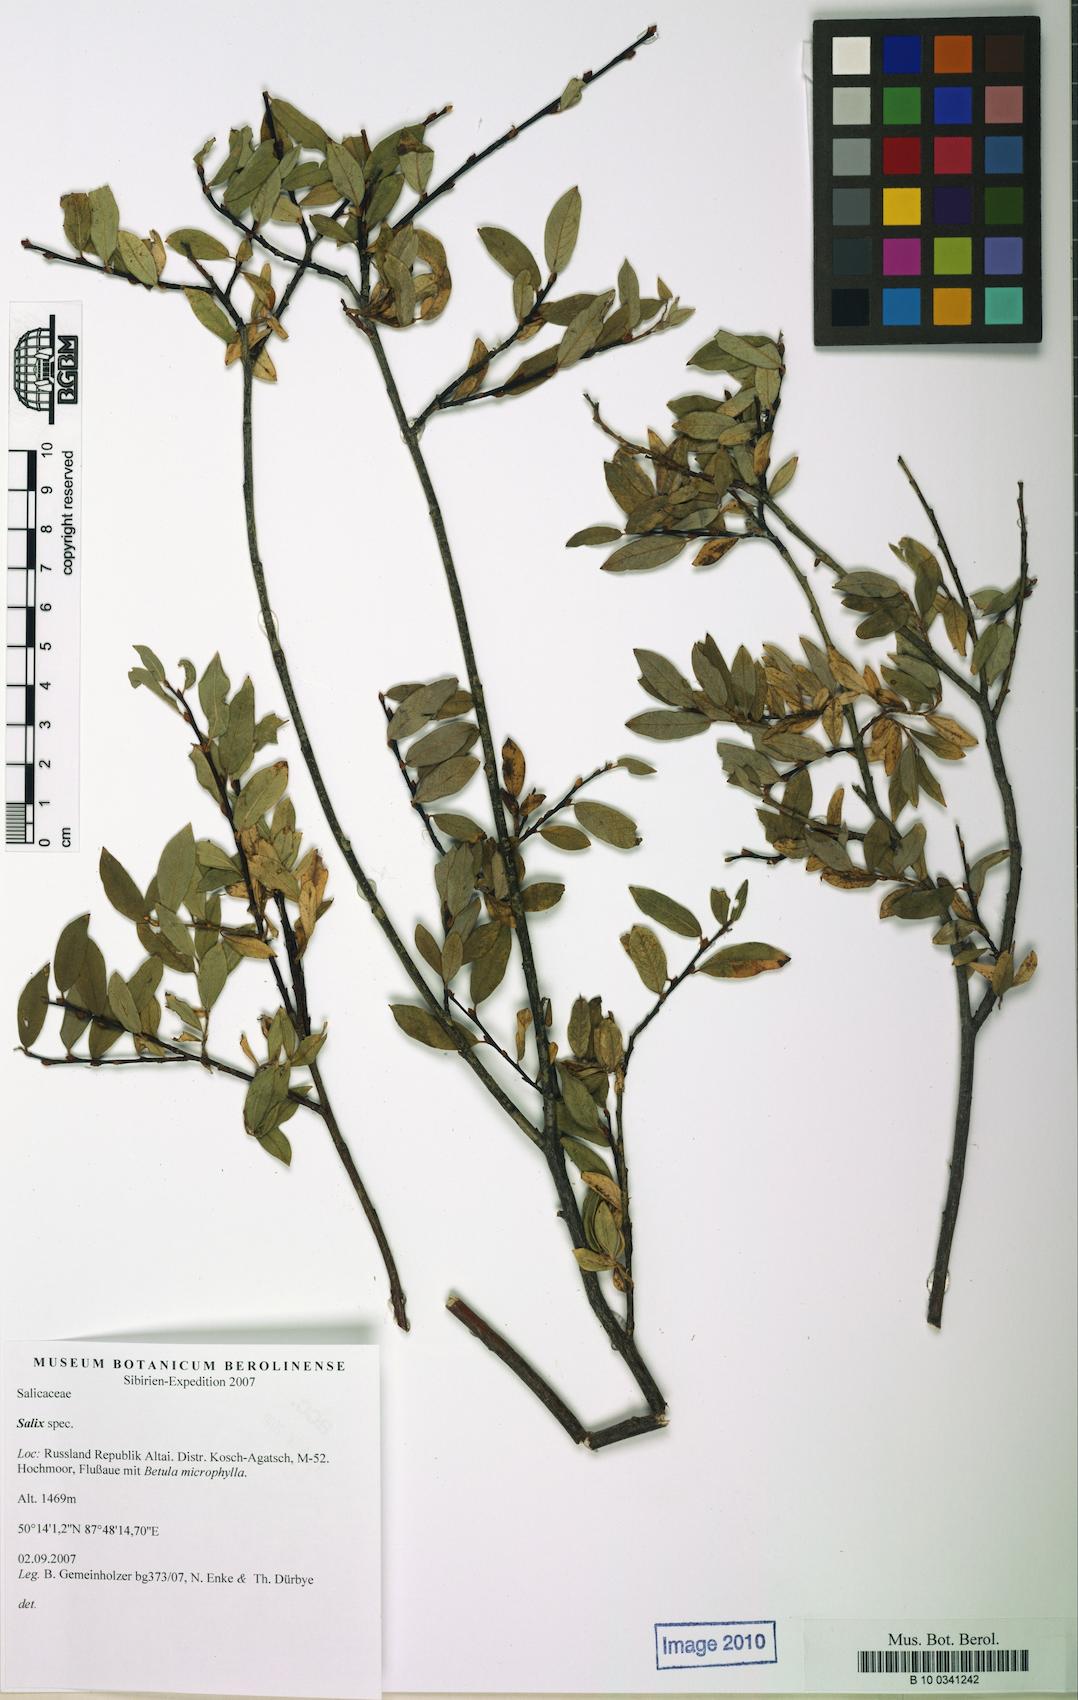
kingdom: Plantae
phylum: Tracheophyta
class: Magnoliopsida
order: Malpighiales
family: Salicaceae
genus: Salix
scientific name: Salix glauca
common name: Glaucous willow
